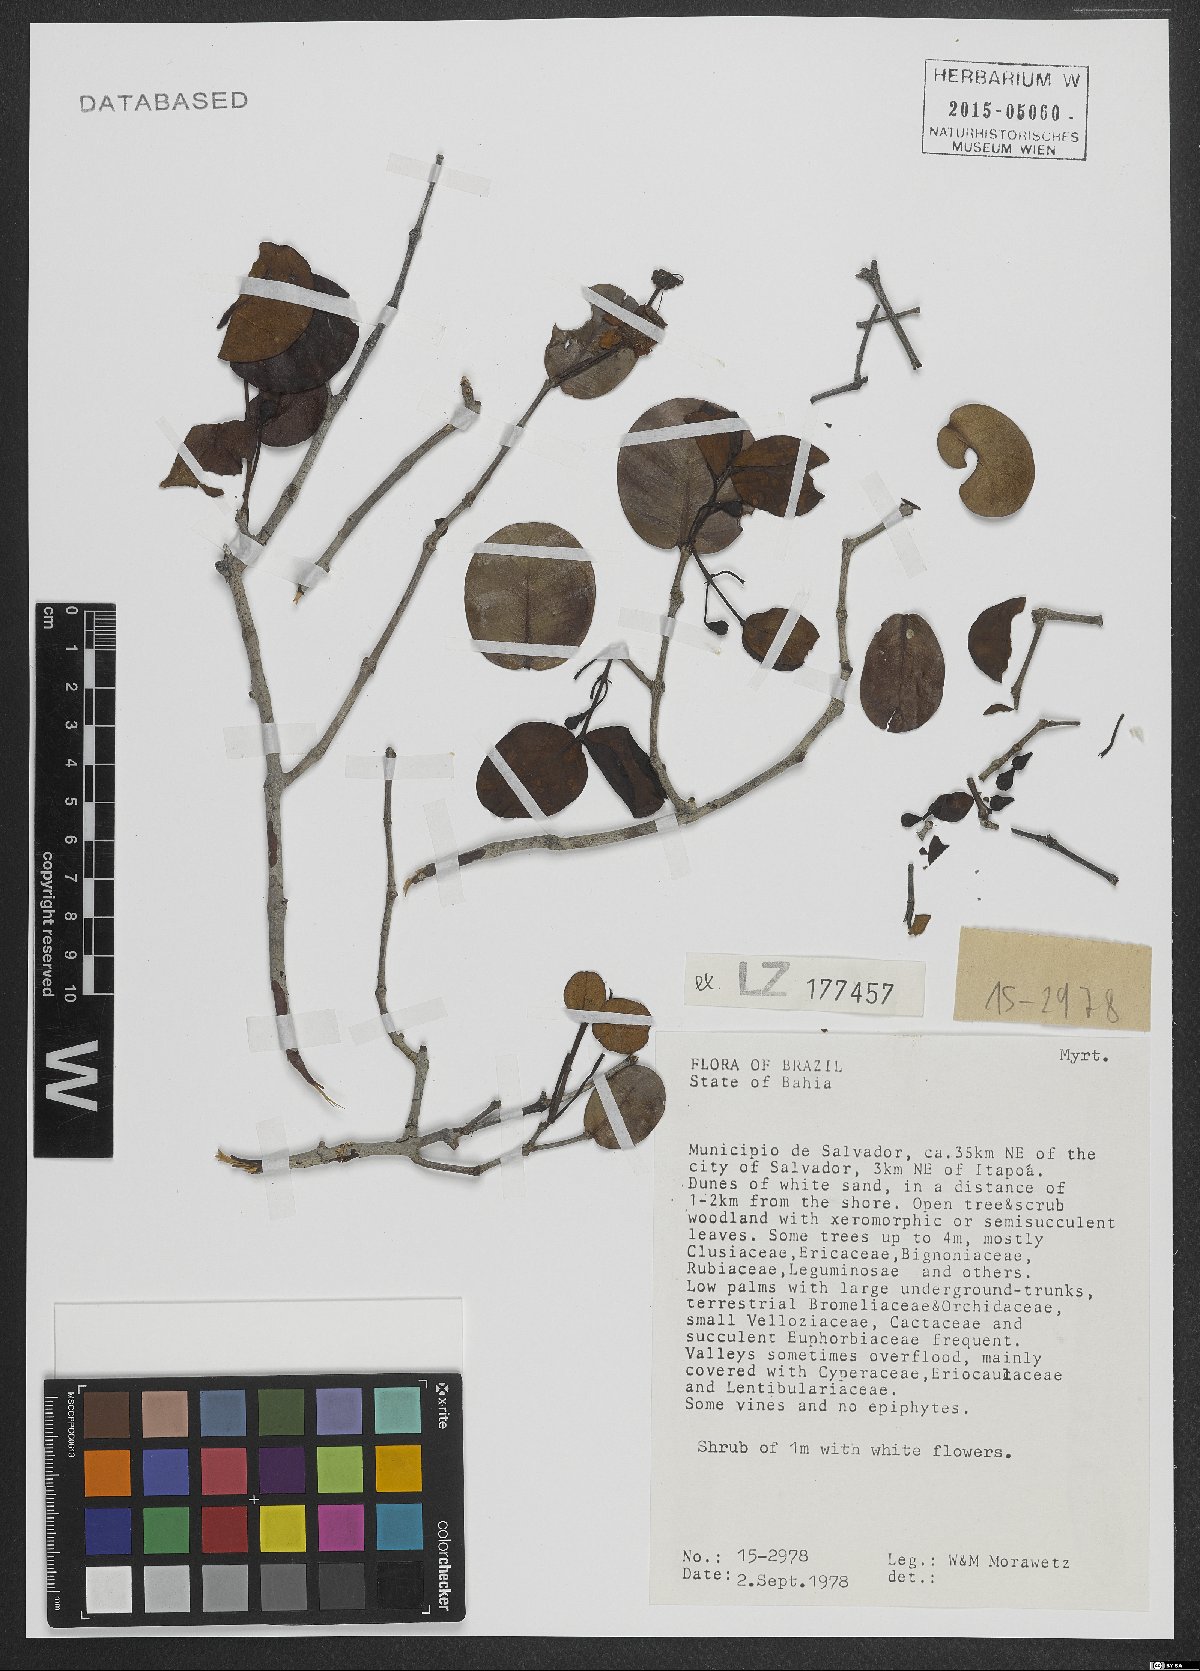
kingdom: Plantae
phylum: Tracheophyta
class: Magnoliopsida
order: Myrtales
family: Myrtaceae
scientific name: Myrtaceae
